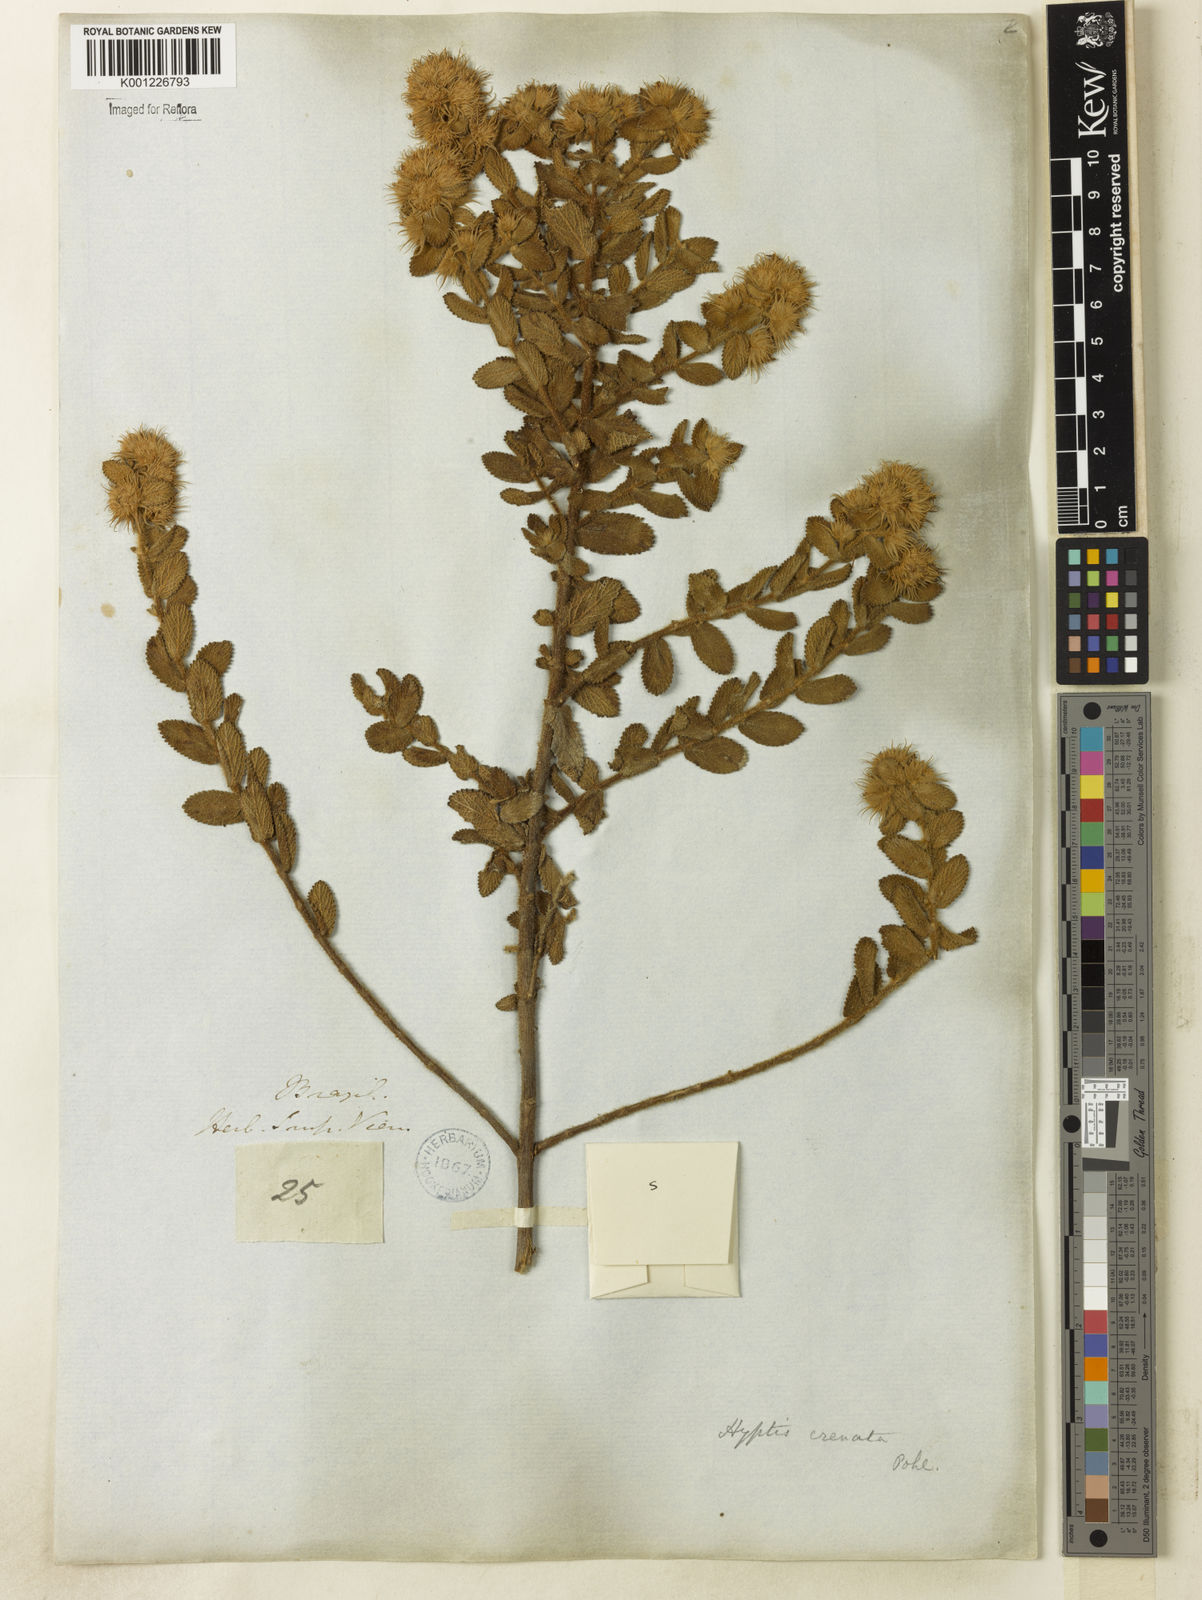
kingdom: Plantae
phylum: Tracheophyta
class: Magnoliopsida
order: Lamiales
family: Lamiaceae
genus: Hyptis
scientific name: Hyptis crenata
